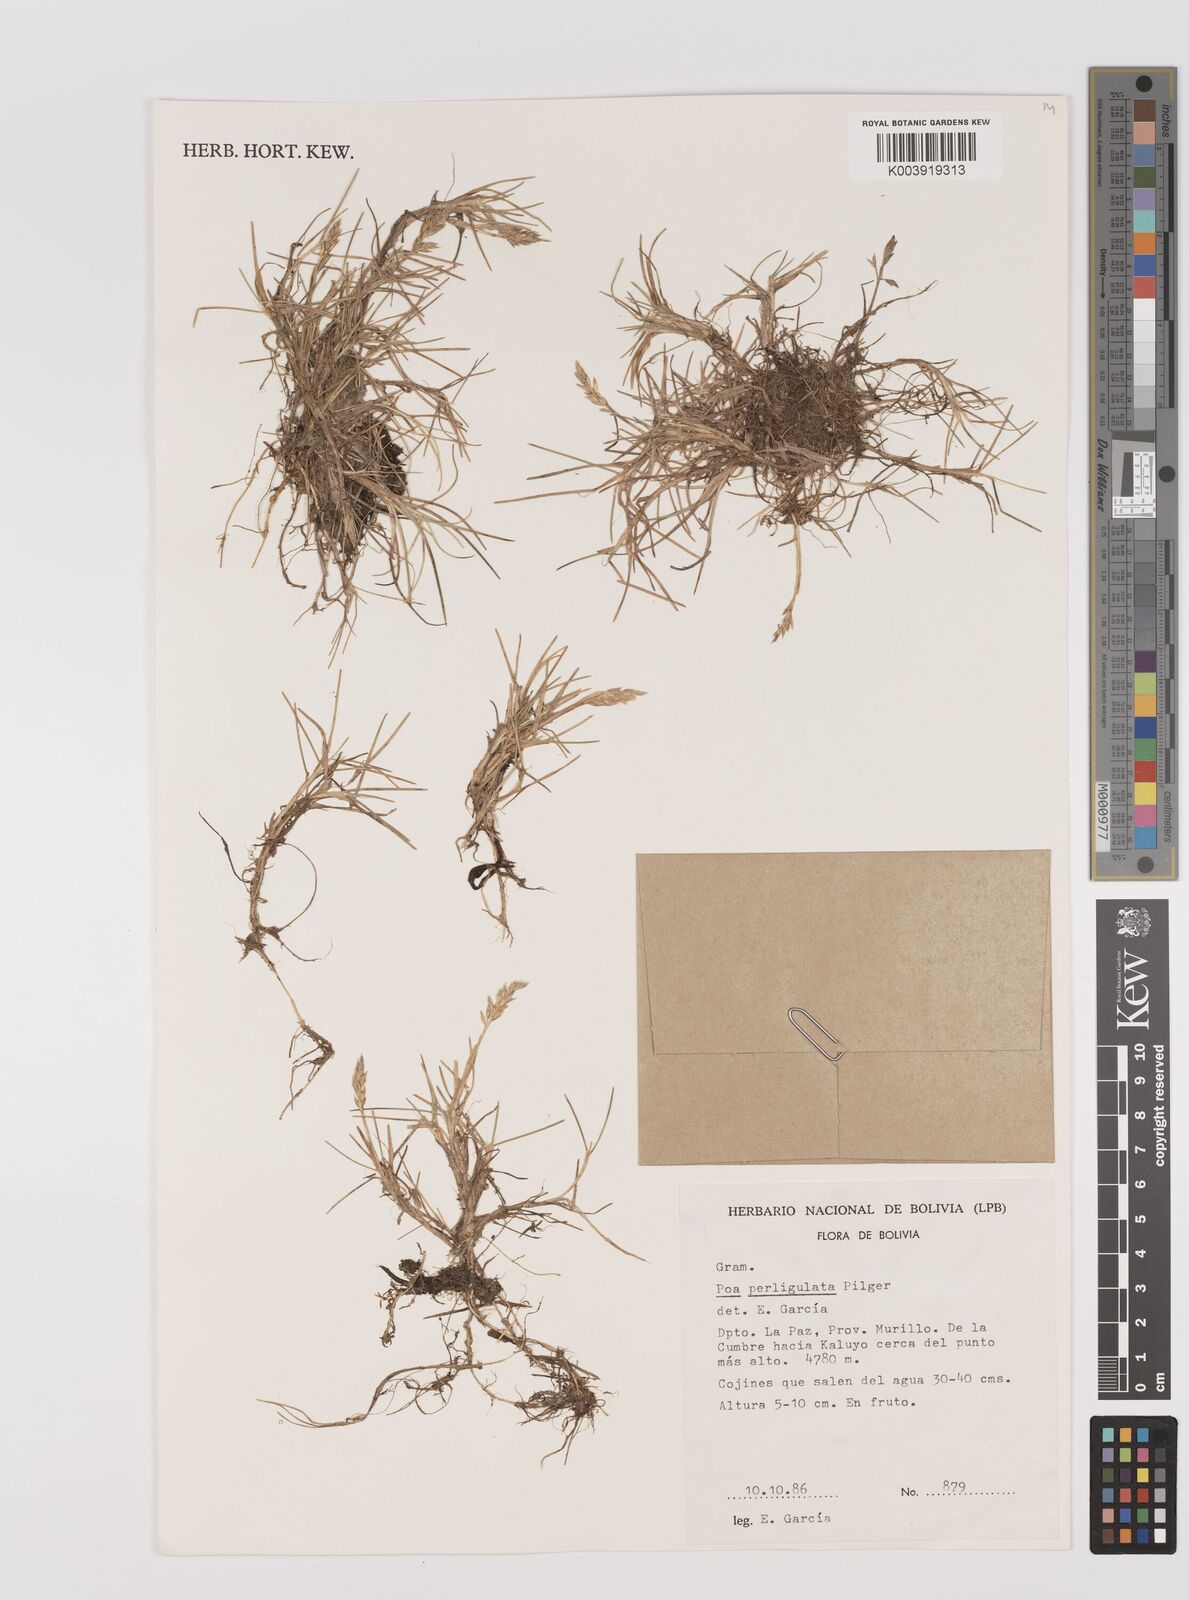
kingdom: Plantae
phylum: Tracheophyta
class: Liliopsida
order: Poales
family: Poaceae
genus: Poa
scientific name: Poa trollii
